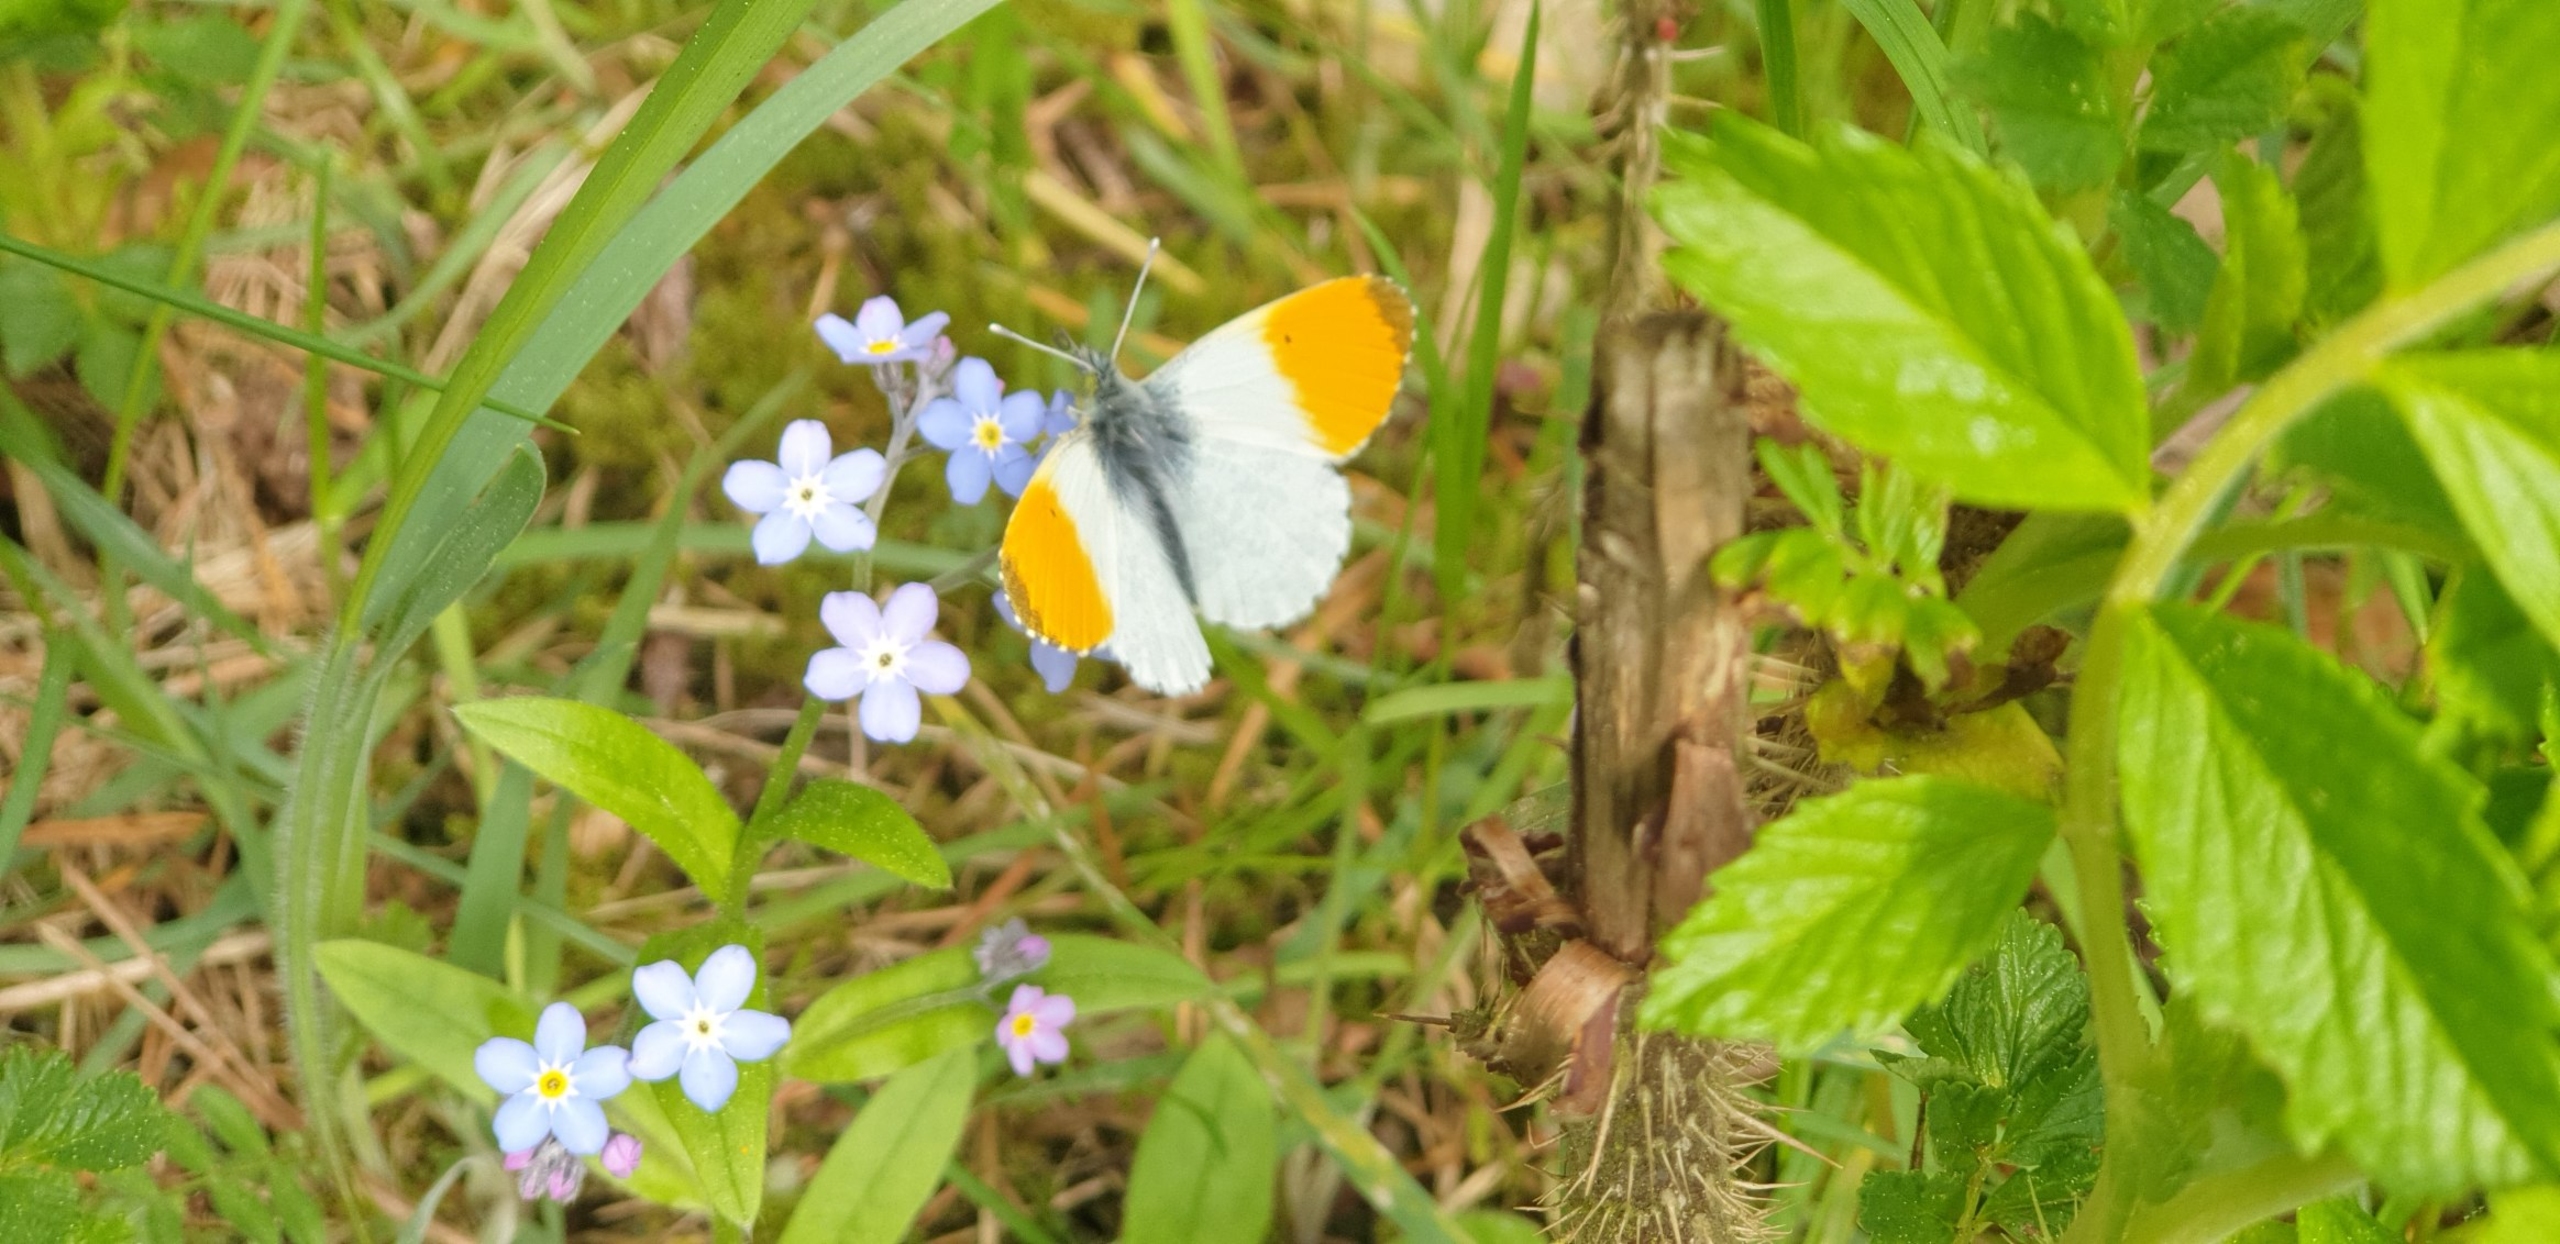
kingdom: Animalia
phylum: Arthropoda
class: Insecta
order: Lepidoptera
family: Pieridae
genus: Anthocharis
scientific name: Anthocharis cardamines
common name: Aurora
